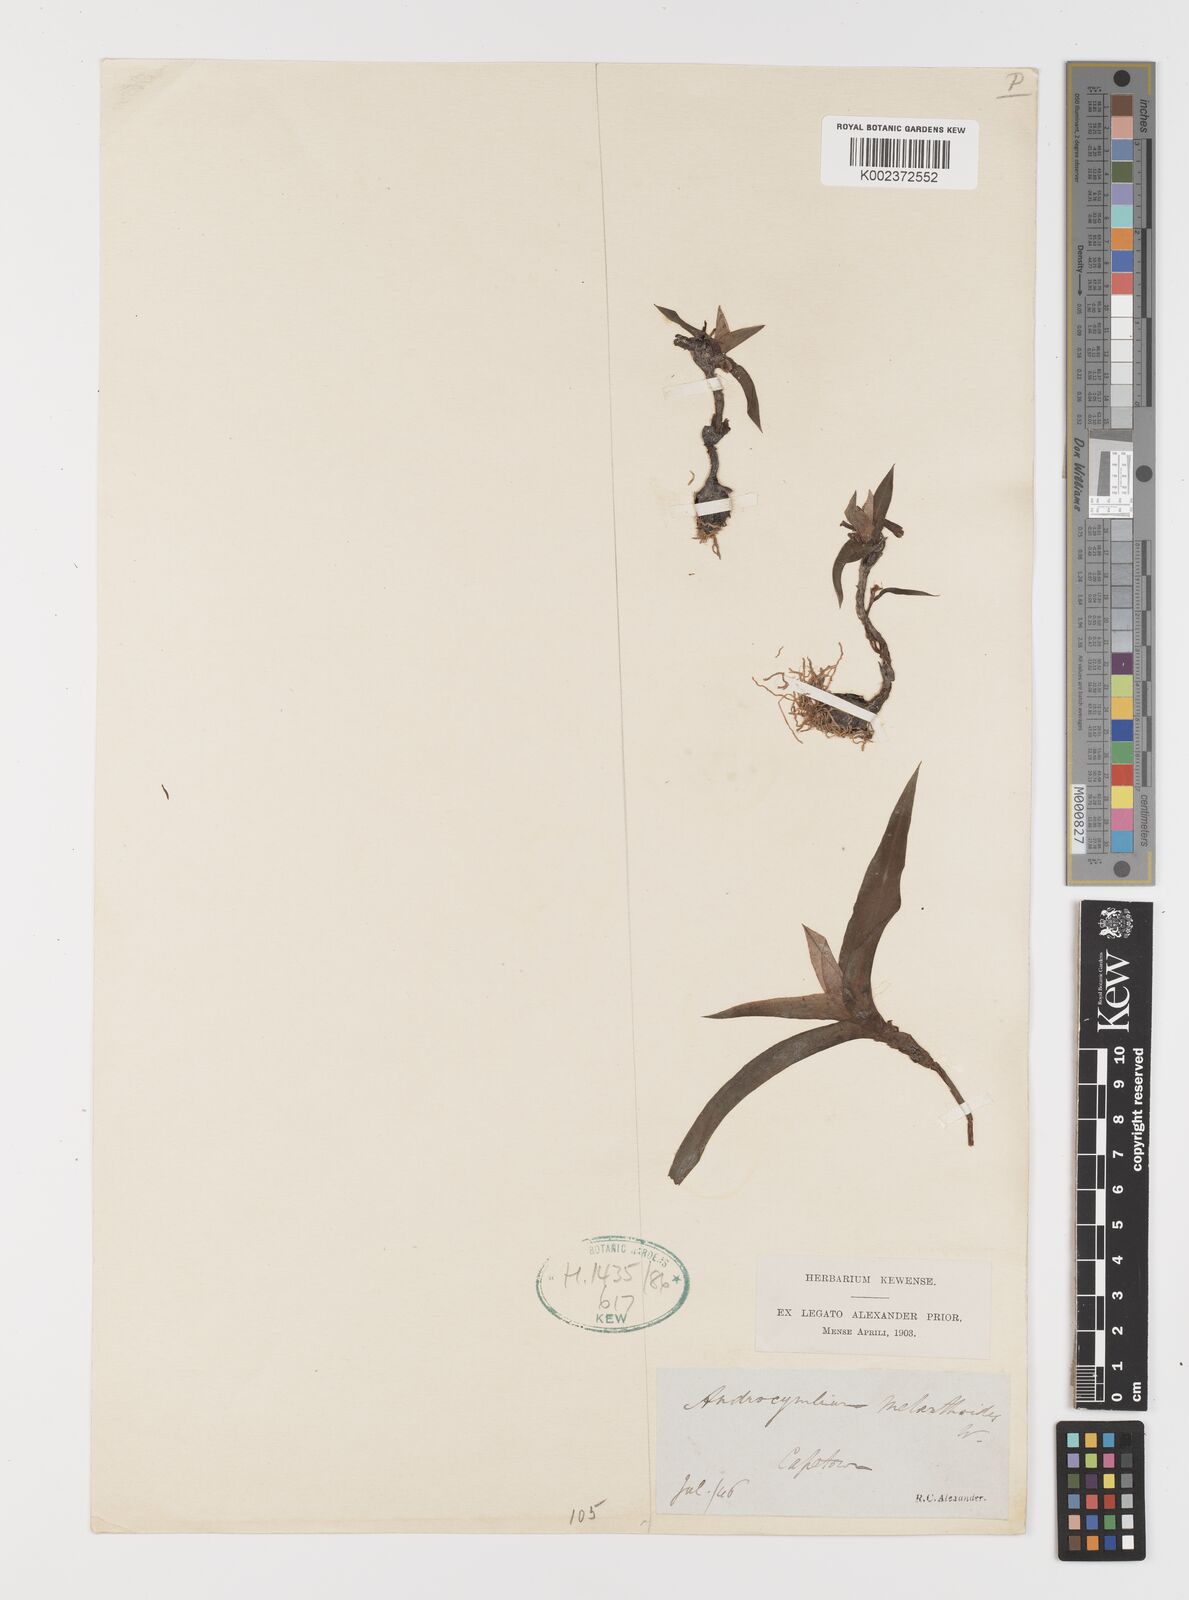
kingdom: Plantae
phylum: Tracheophyta
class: Liliopsida
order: Liliales
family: Colchicaceae
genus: Colchicum
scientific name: Colchicum melanthioides
